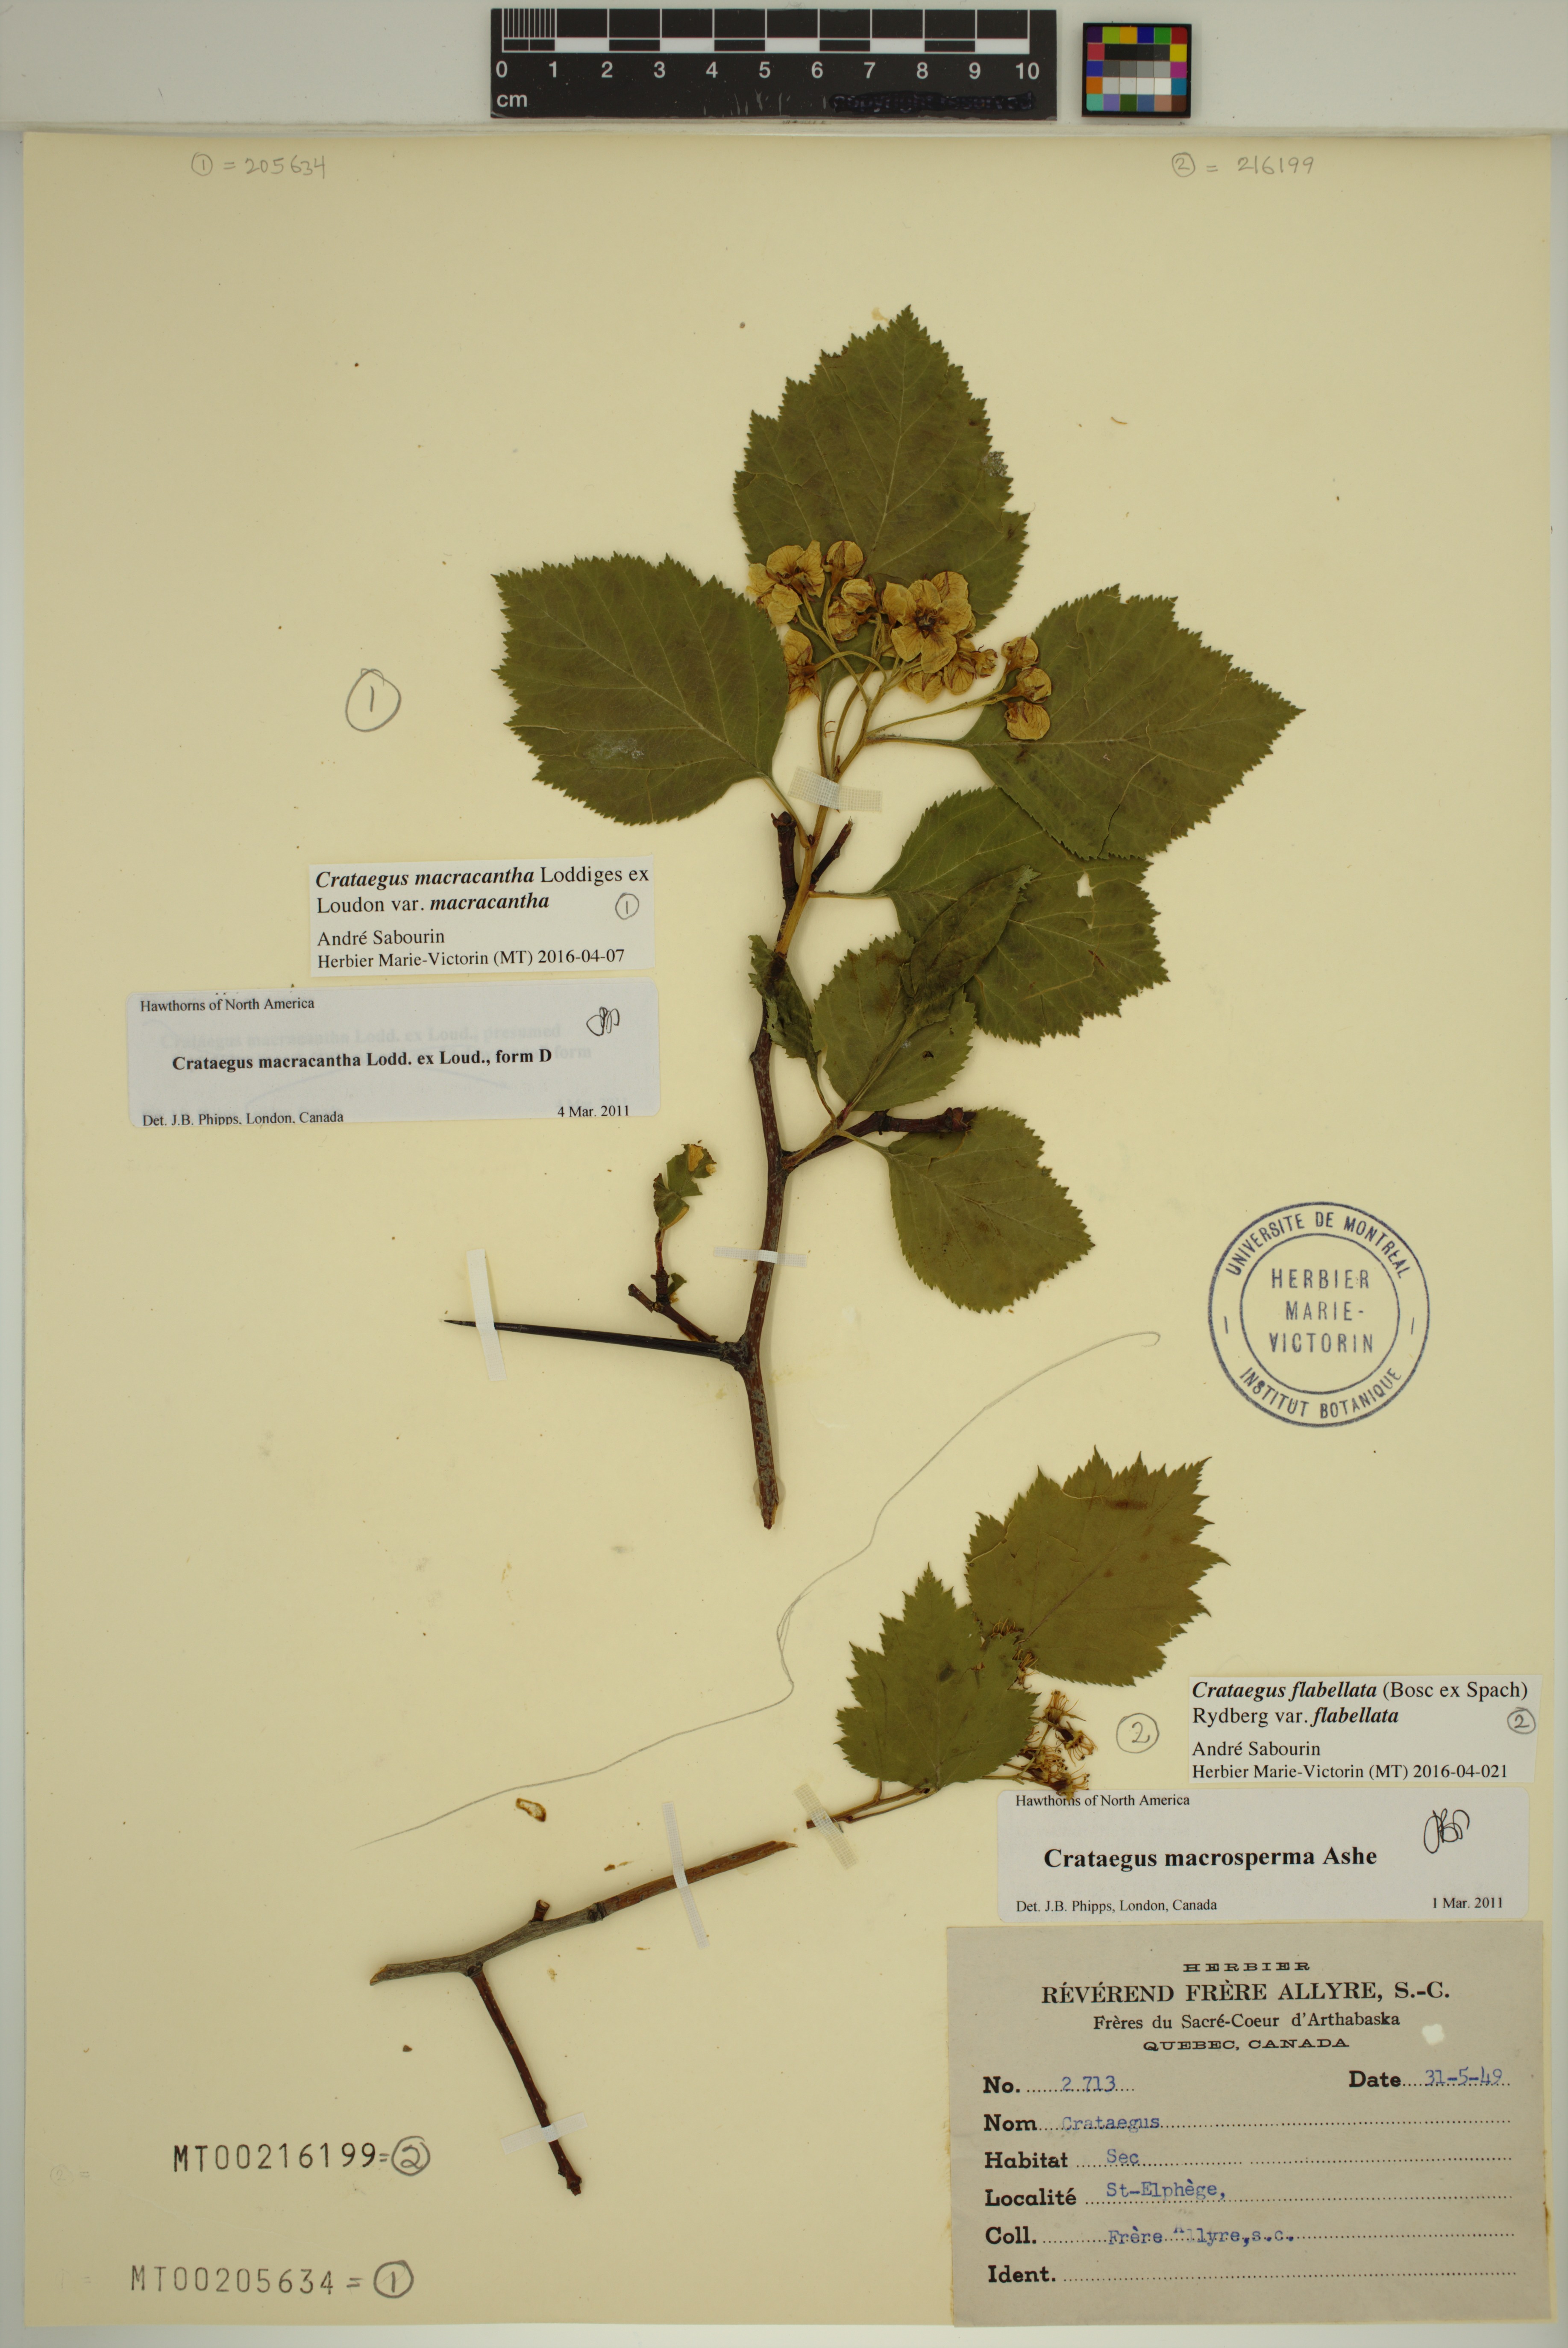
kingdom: Plantae
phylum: Tracheophyta
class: Magnoliopsida
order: Rosales
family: Rosaceae
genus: Crataegus
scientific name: Crataegus macracantha
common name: Large-thorn hawthorn
